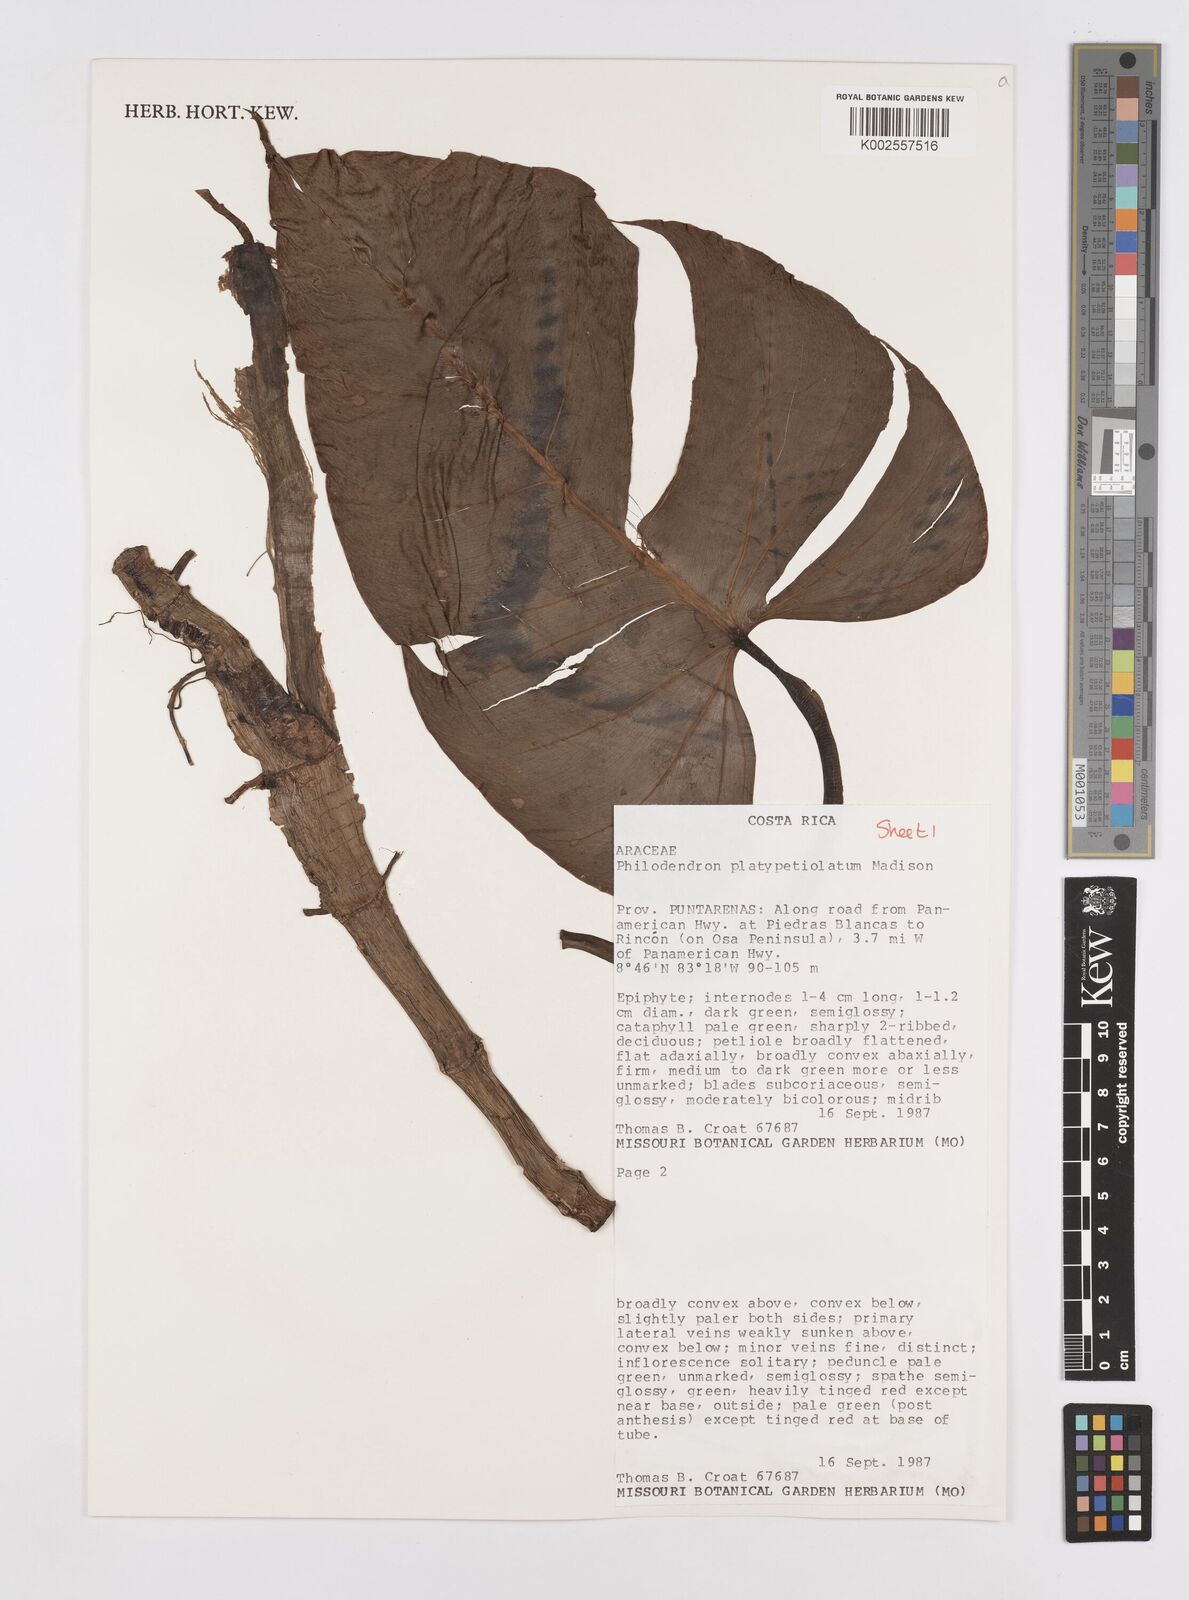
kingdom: Plantae
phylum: Tracheophyta
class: Liliopsida
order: Alismatales
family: Araceae
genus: Philodendron
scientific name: Philodendron platypetiolatum
